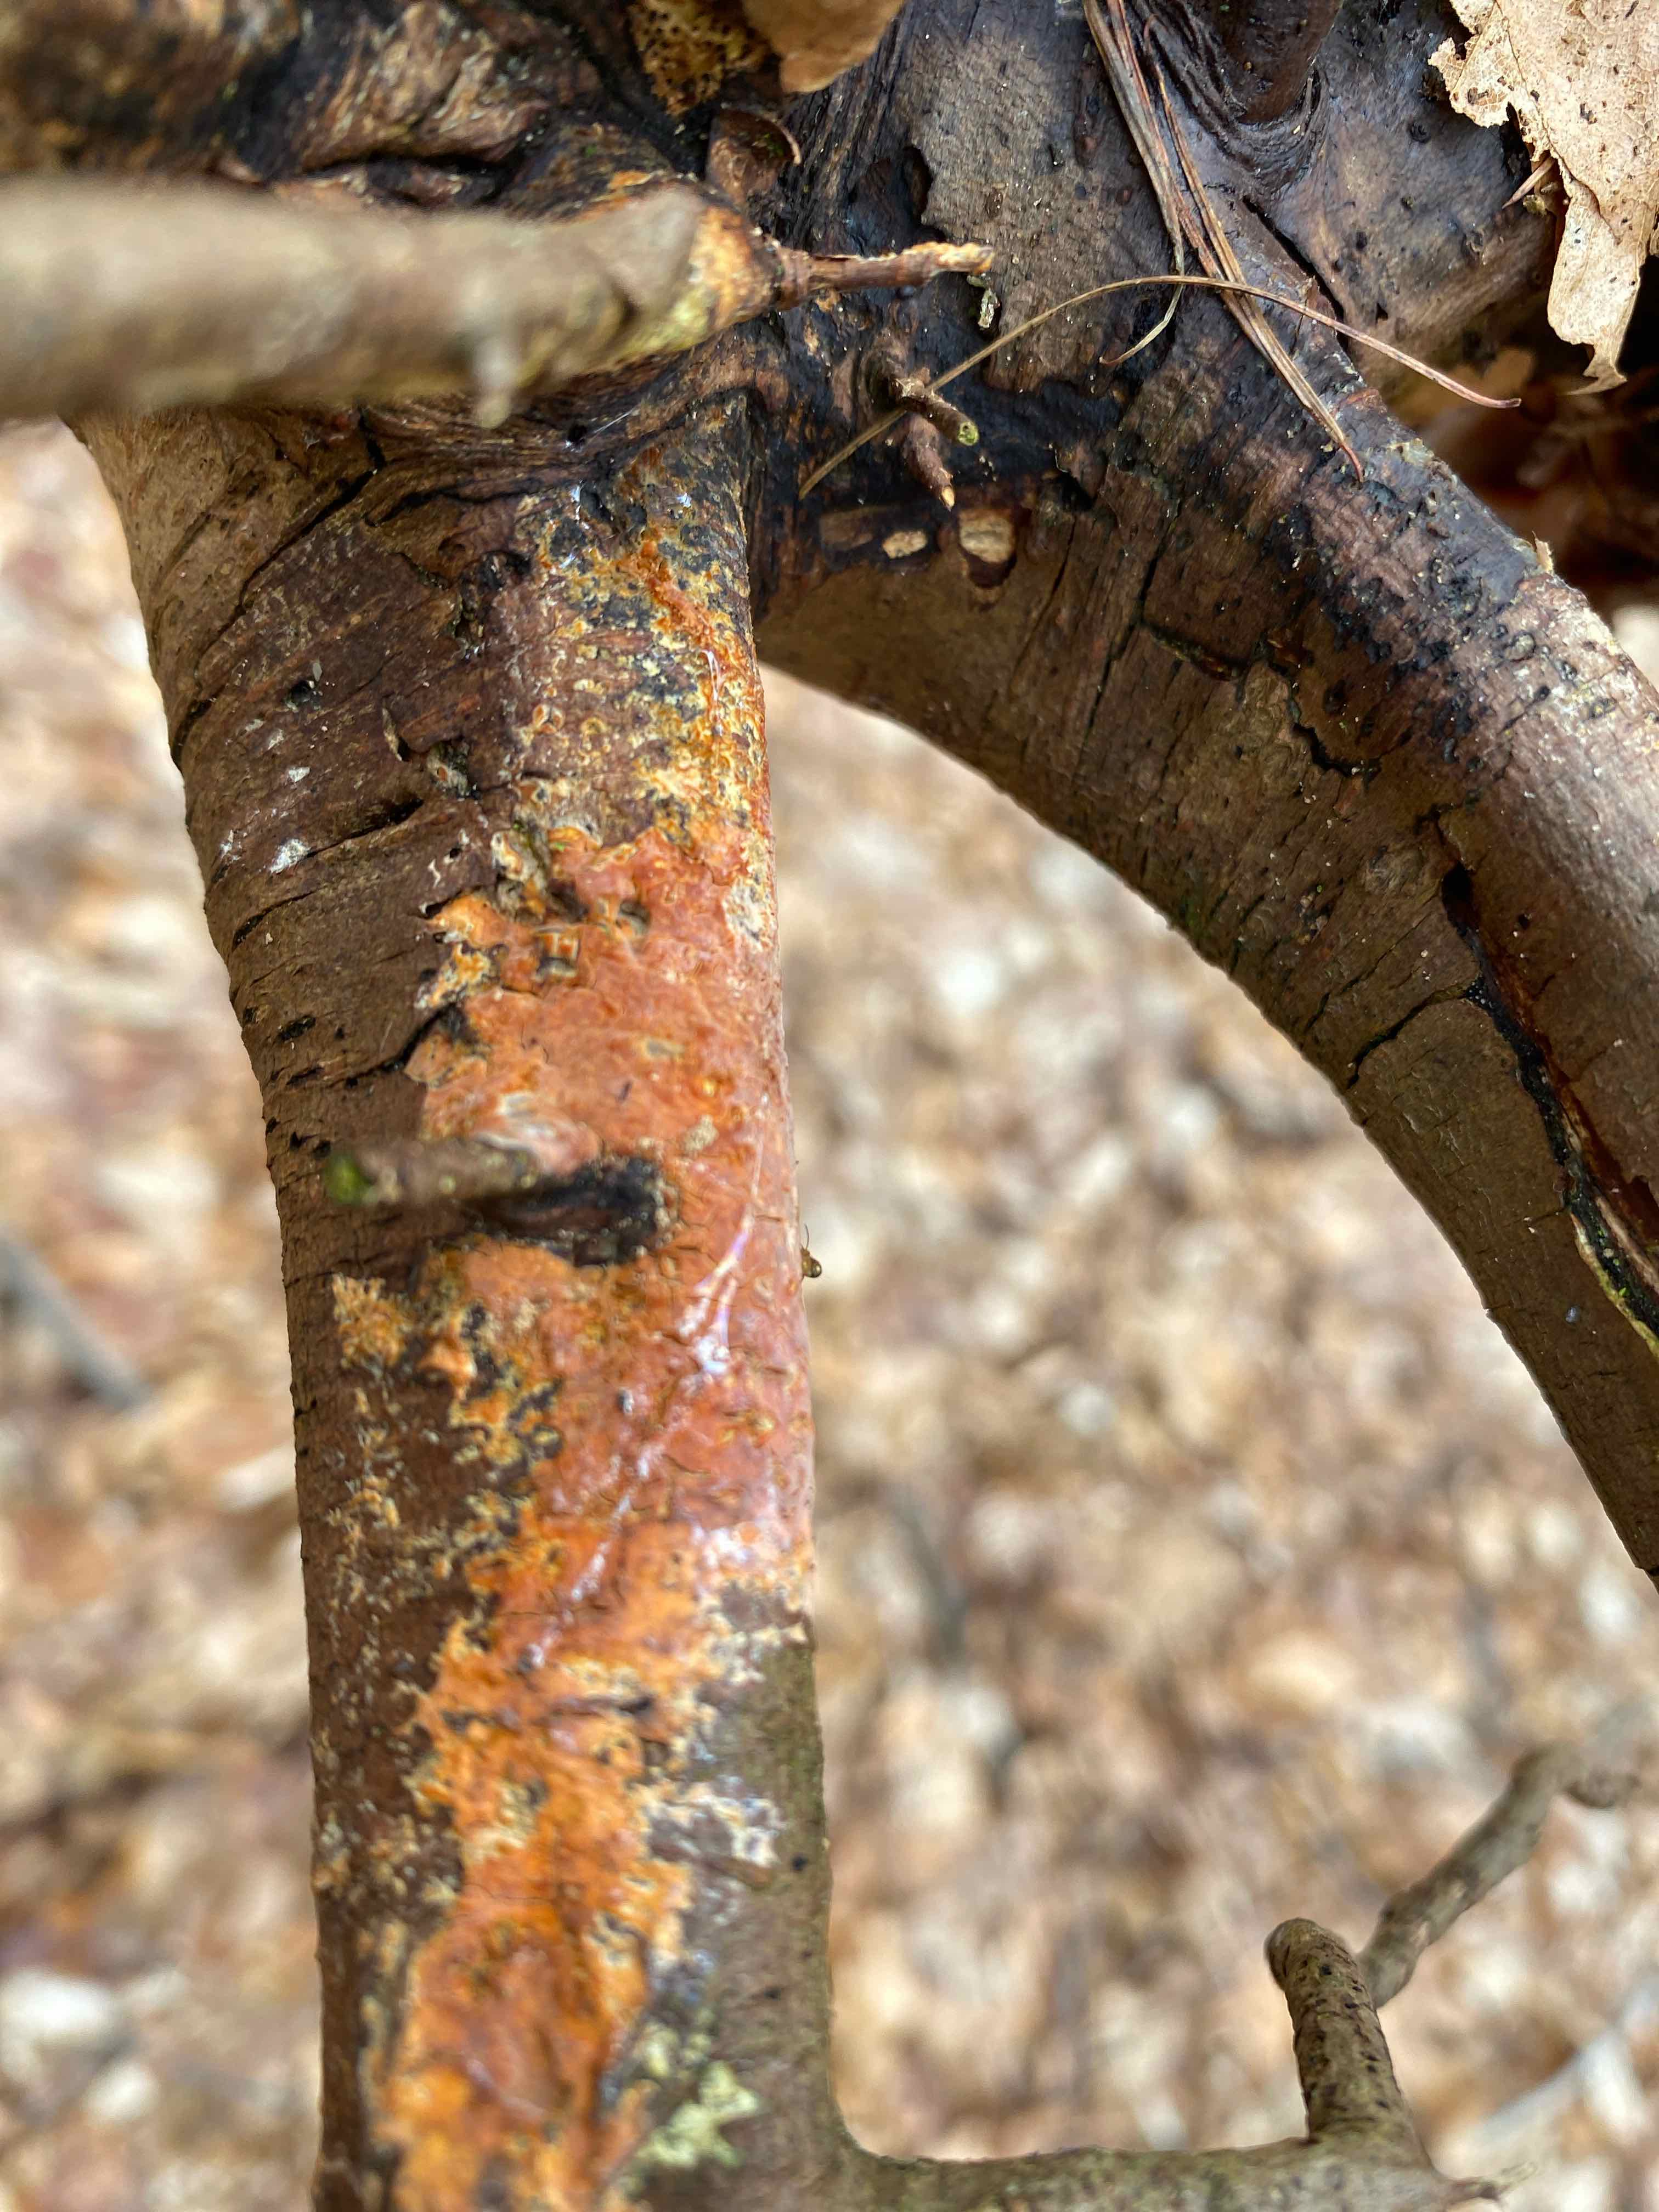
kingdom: Fungi
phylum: Basidiomycota
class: Agaricomycetes
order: Russulales
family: Peniophoraceae
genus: Peniophora
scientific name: Peniophora incarnata
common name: laksefarvet voksskind
